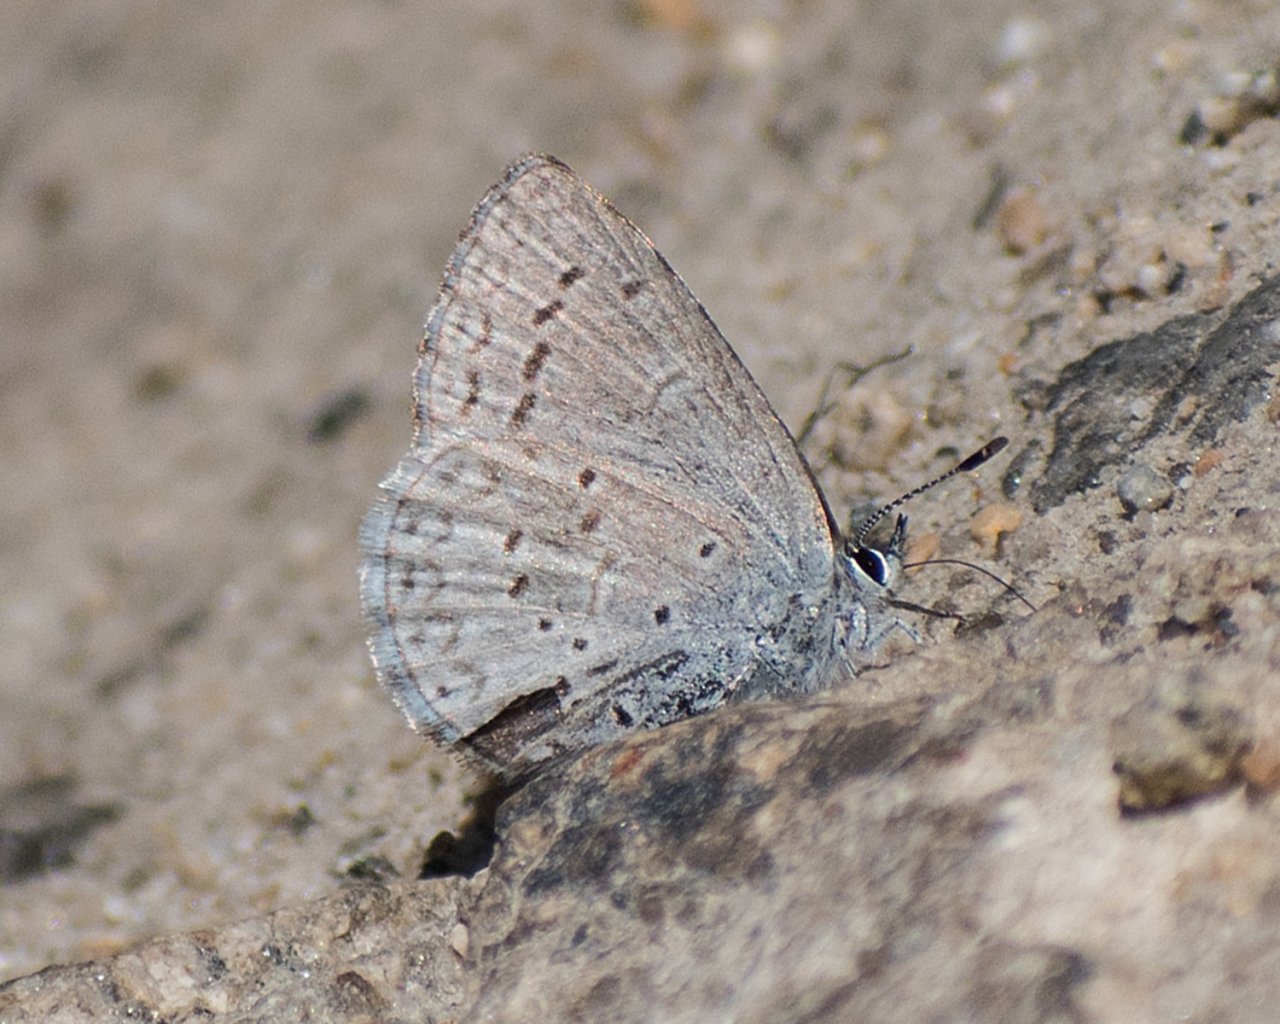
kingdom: Animalia
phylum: Arthropoda
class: Insecta
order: Lepidoptera
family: Lycaenidae
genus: Celastrina
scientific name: Celastrina ladon
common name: Echo Azure
